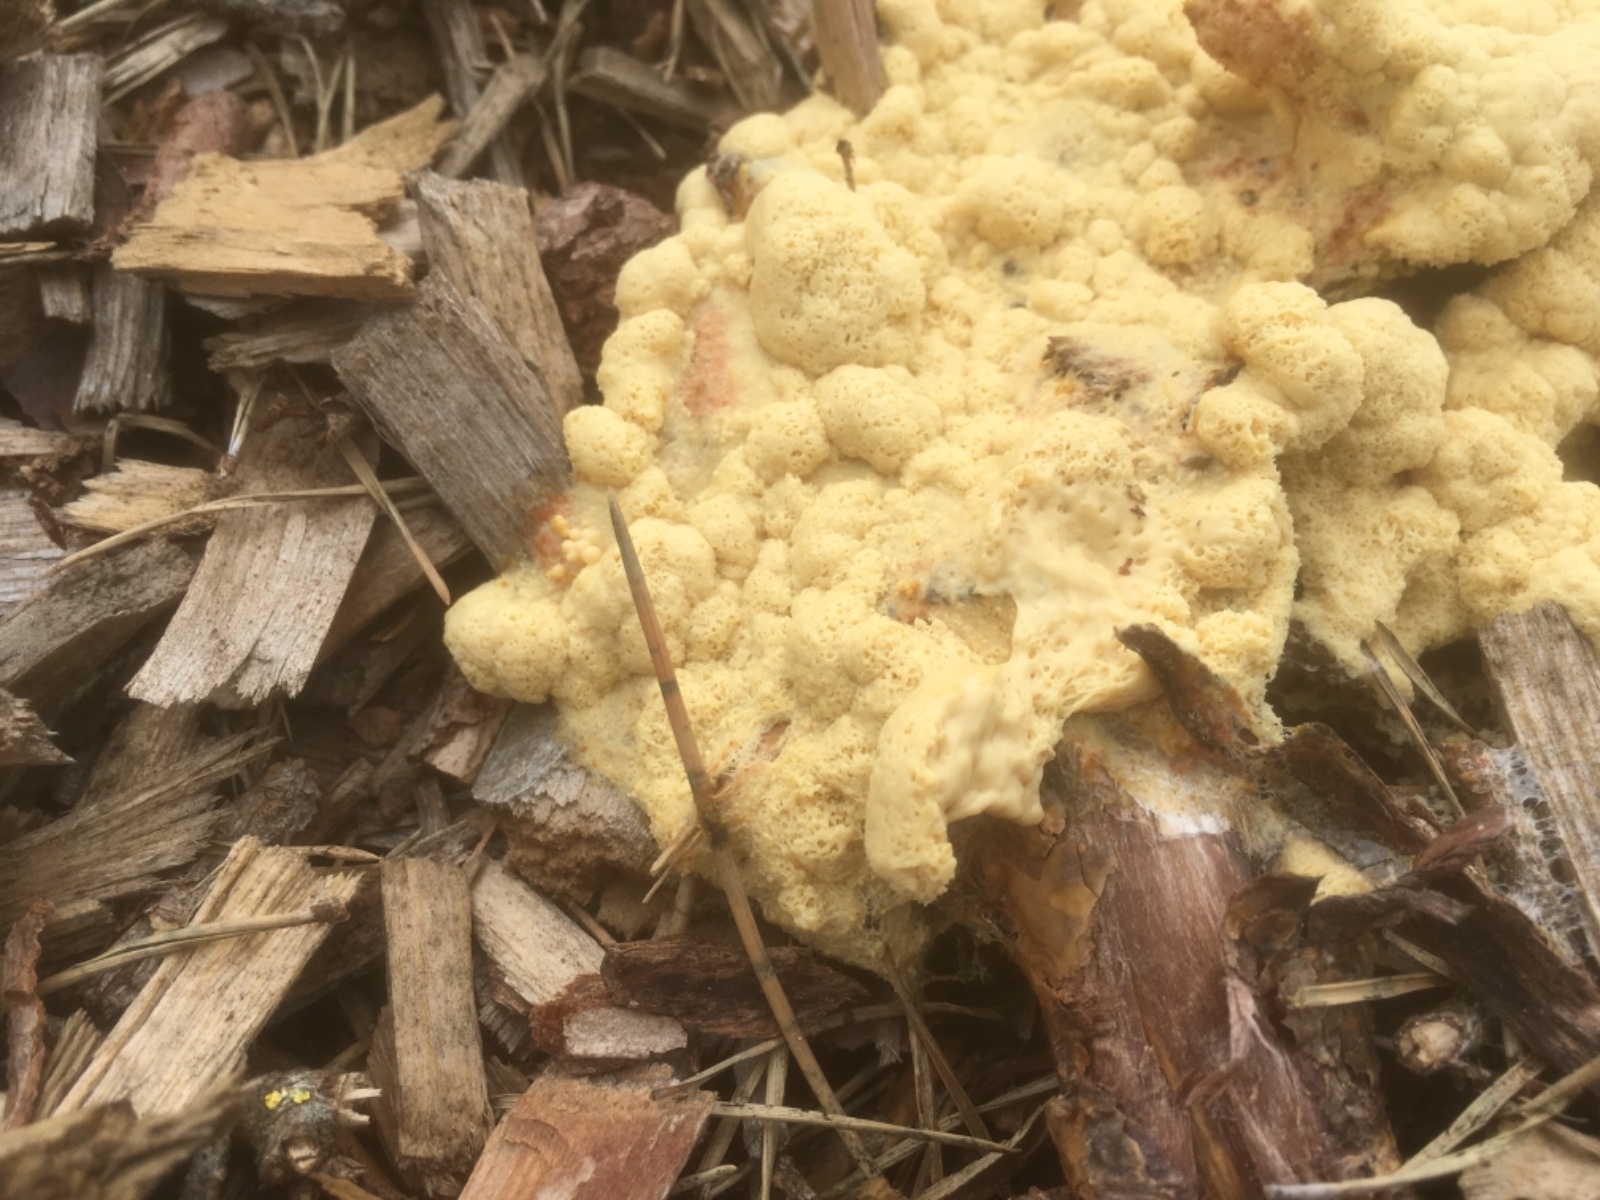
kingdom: Protozoa
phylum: Mycetozoa
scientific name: Mycetozoa
